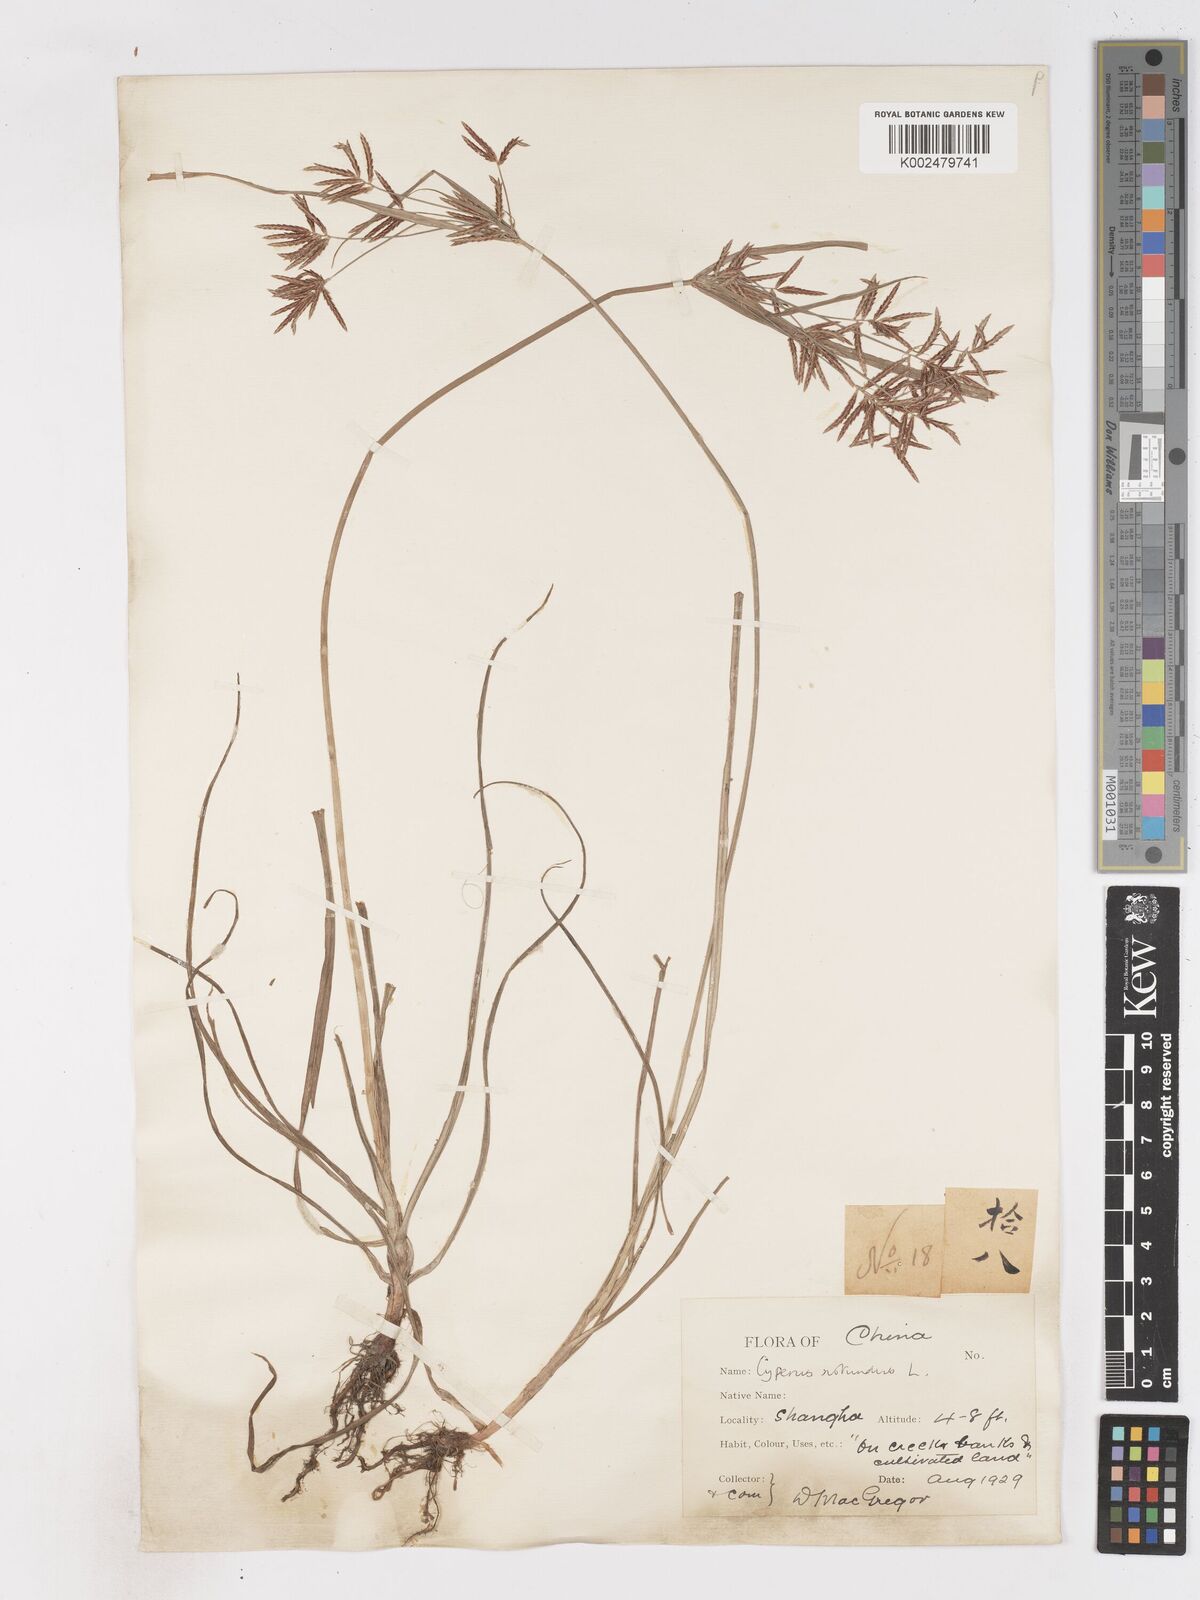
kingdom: Plantae
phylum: Tracheophyta
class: Liliopsida
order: Poales
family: Cyperaceae
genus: Cyperus
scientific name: Cyperus rotundus
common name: Nutgrass
